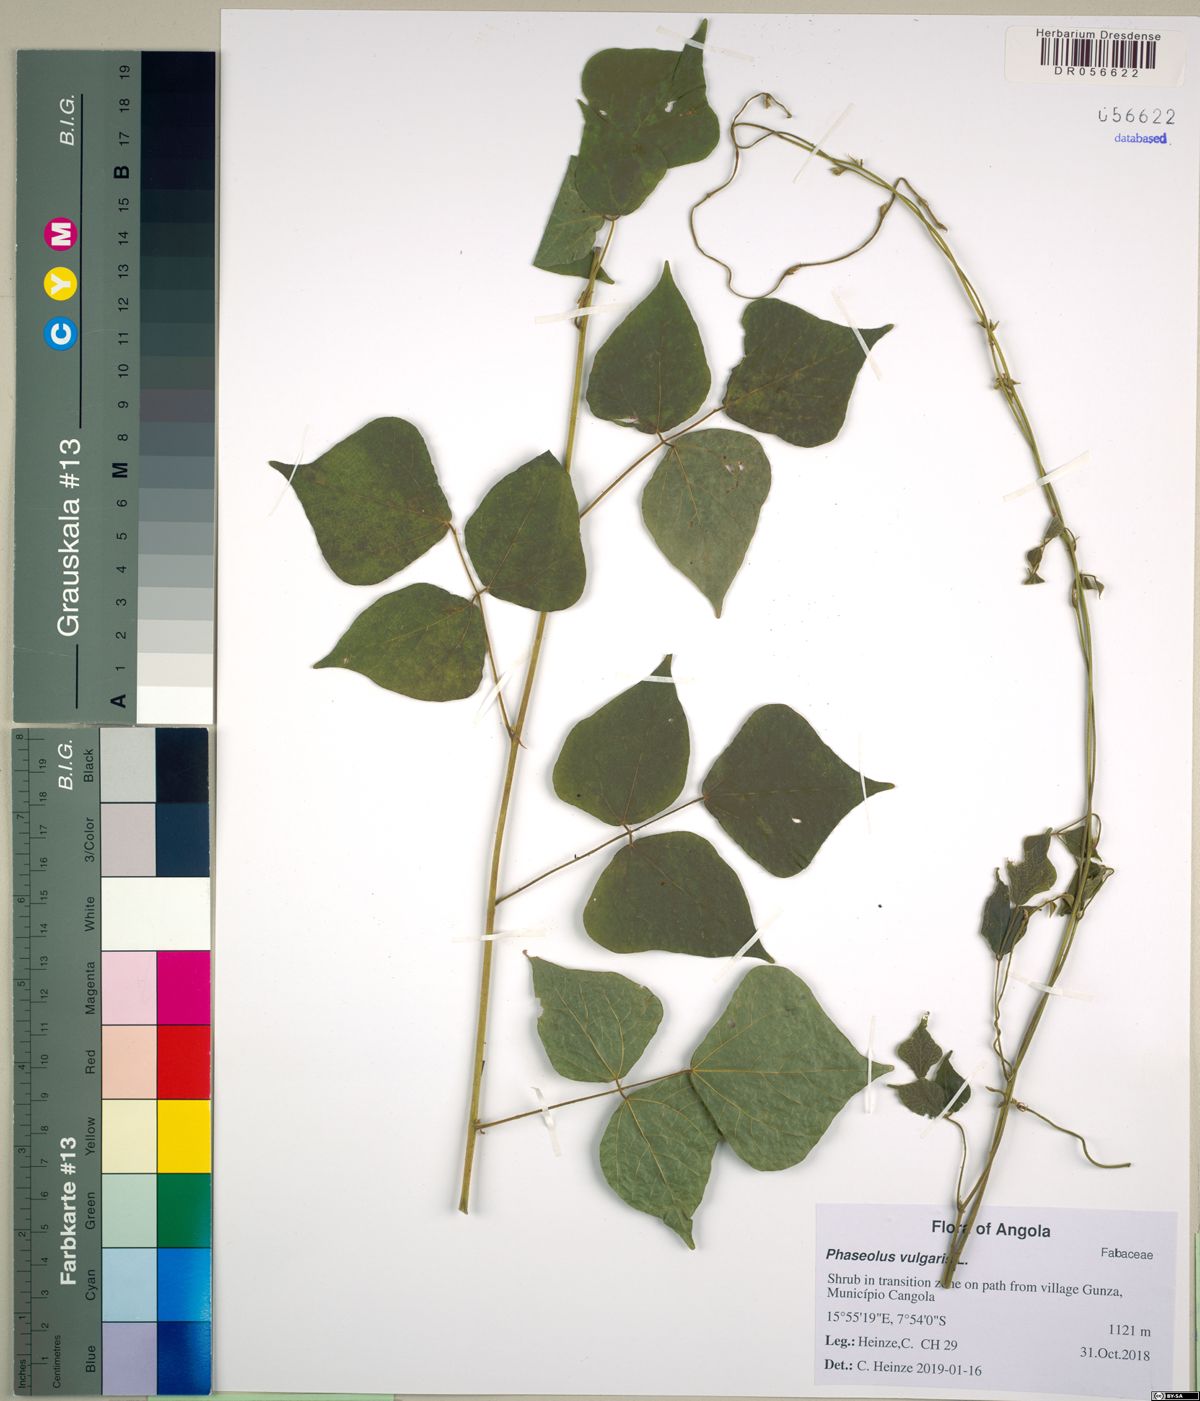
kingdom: Plantae
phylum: Tracheophyta
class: Magnoliopsida
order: Fabales
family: Fabaceae
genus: Phaseolus
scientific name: Phaseolus vulgaris
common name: Bean
